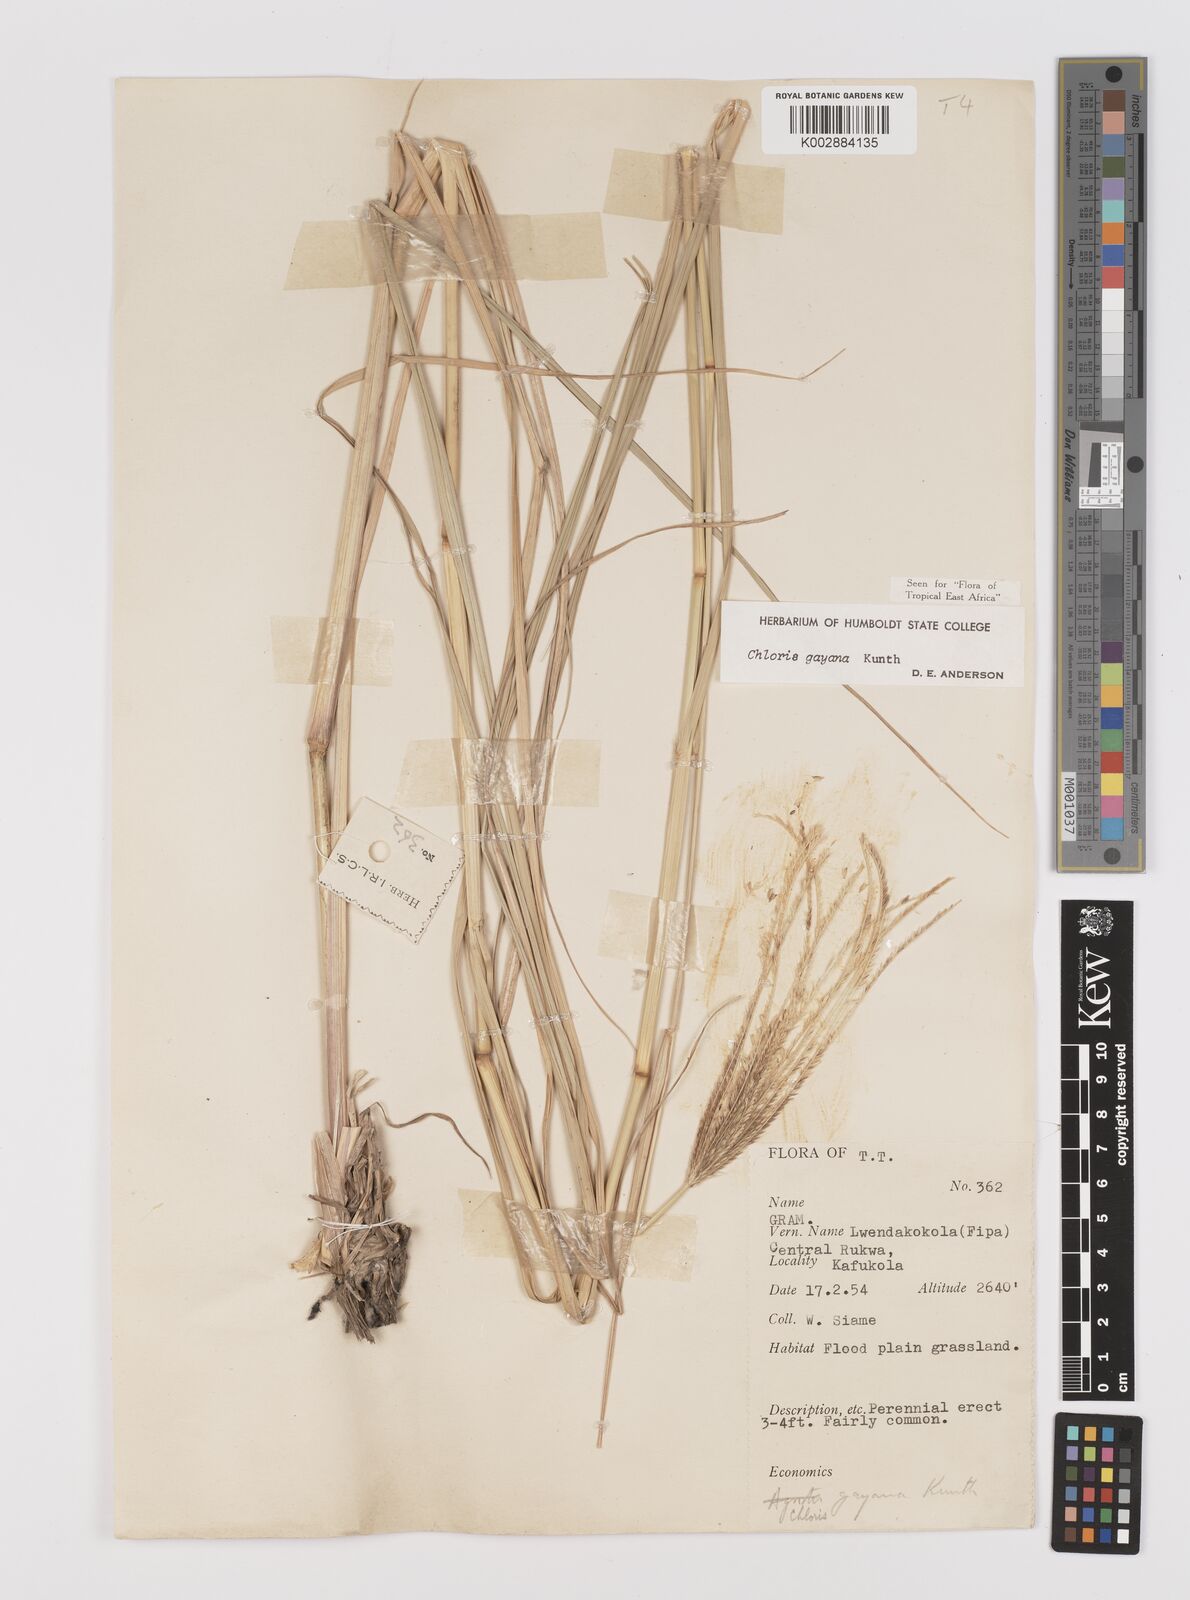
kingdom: Plantae
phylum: Tracheophyta
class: Liliopsida
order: Poales
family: Poaceae
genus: Chloris
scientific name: Chloris gayana
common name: Rhodes grass
